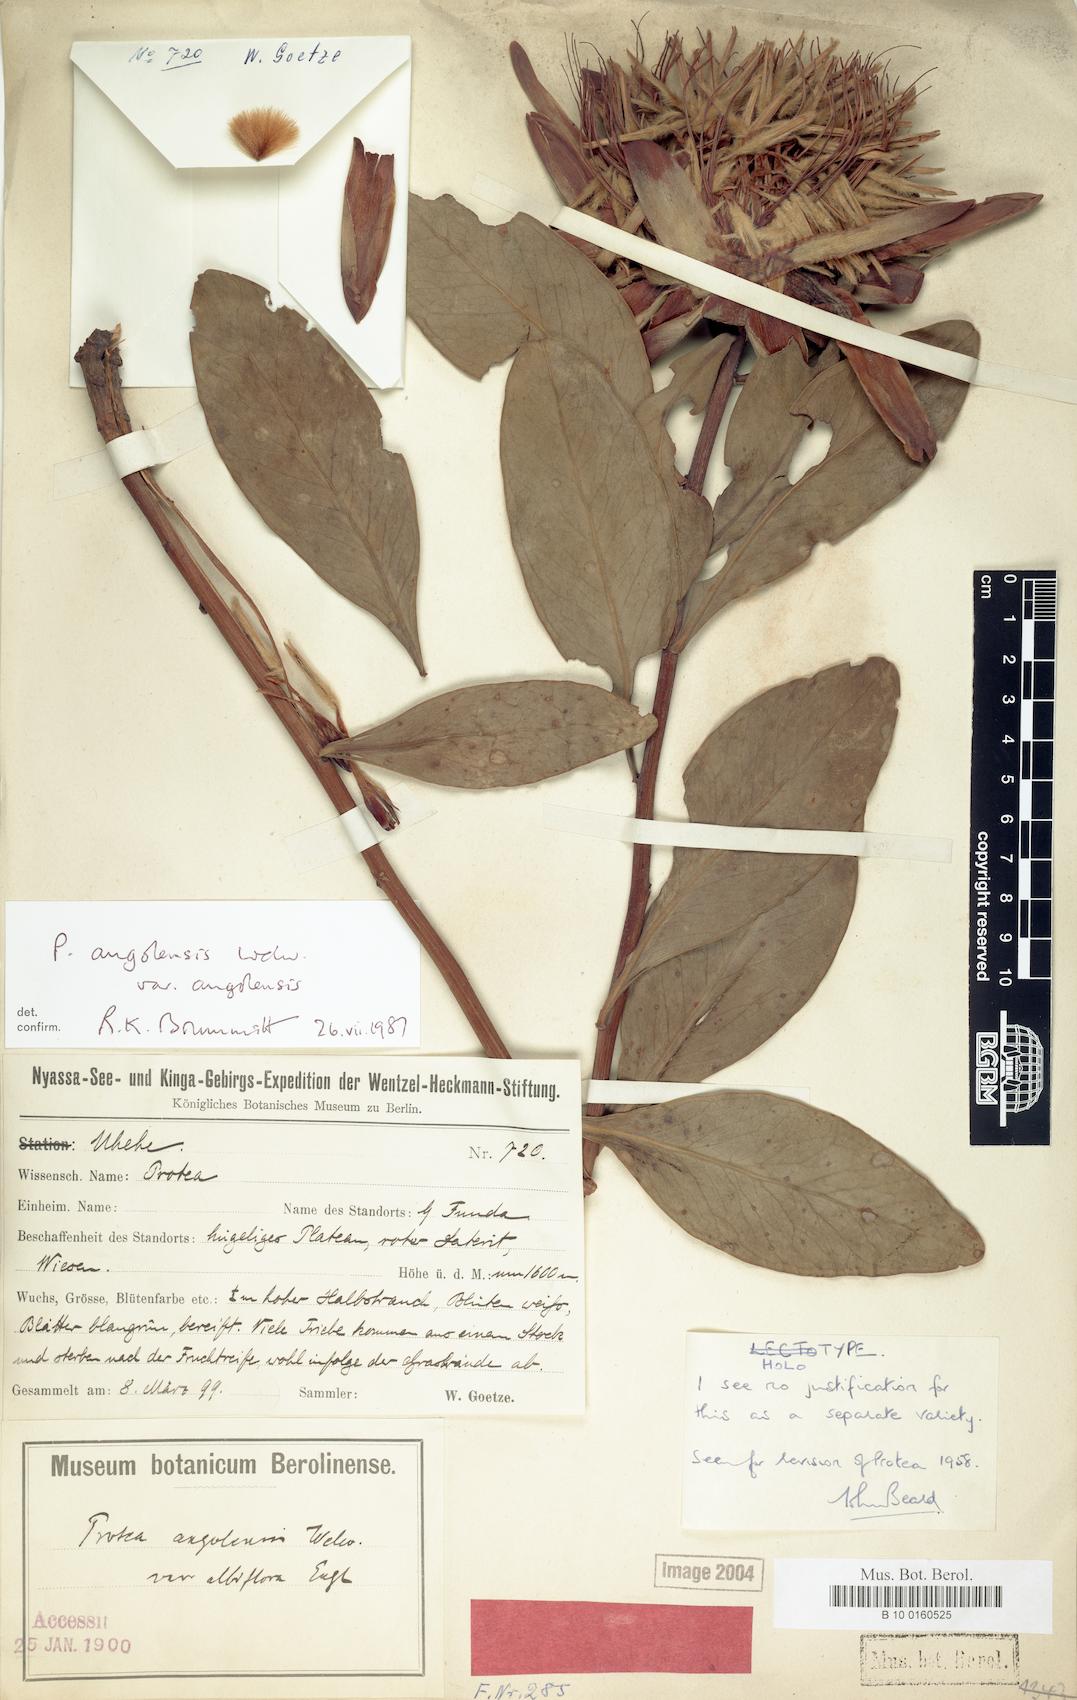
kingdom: Plantae
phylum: Tracheophyta
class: Magnoliopsida
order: Proteales
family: Proteaceae
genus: Protea
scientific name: Protea angolensis
